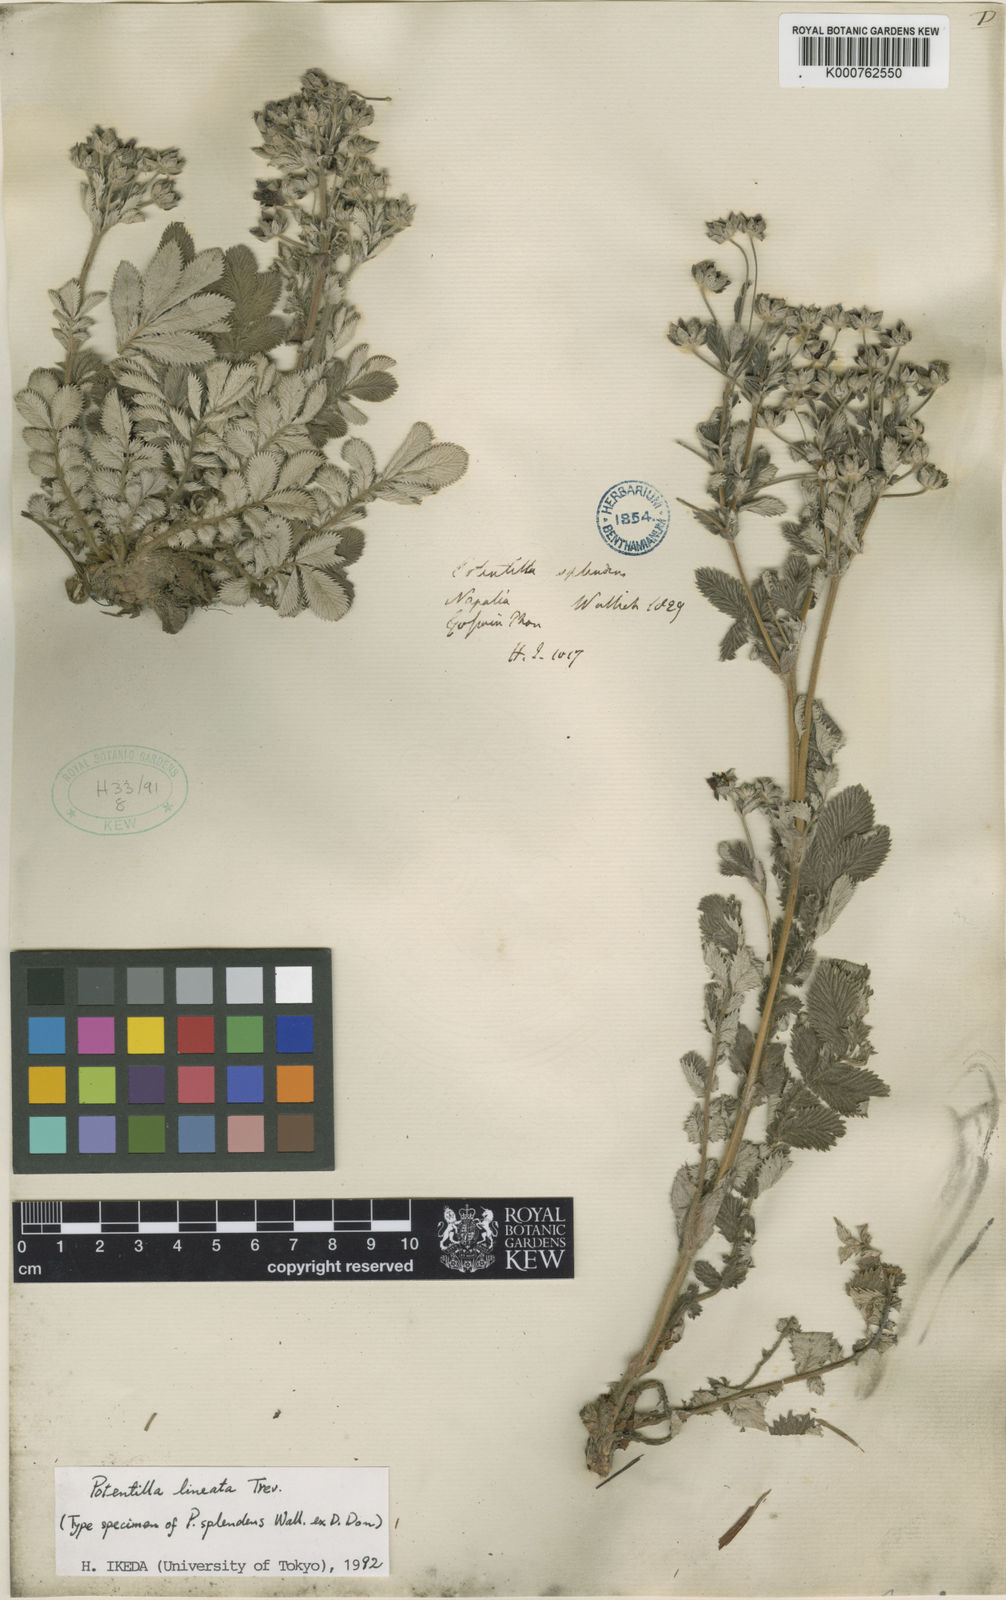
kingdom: Plantae
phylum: Tracheophyta
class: Magnoliopsida
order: Rosales
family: Rosaceae
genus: Argentina
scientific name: Argentina lineata
